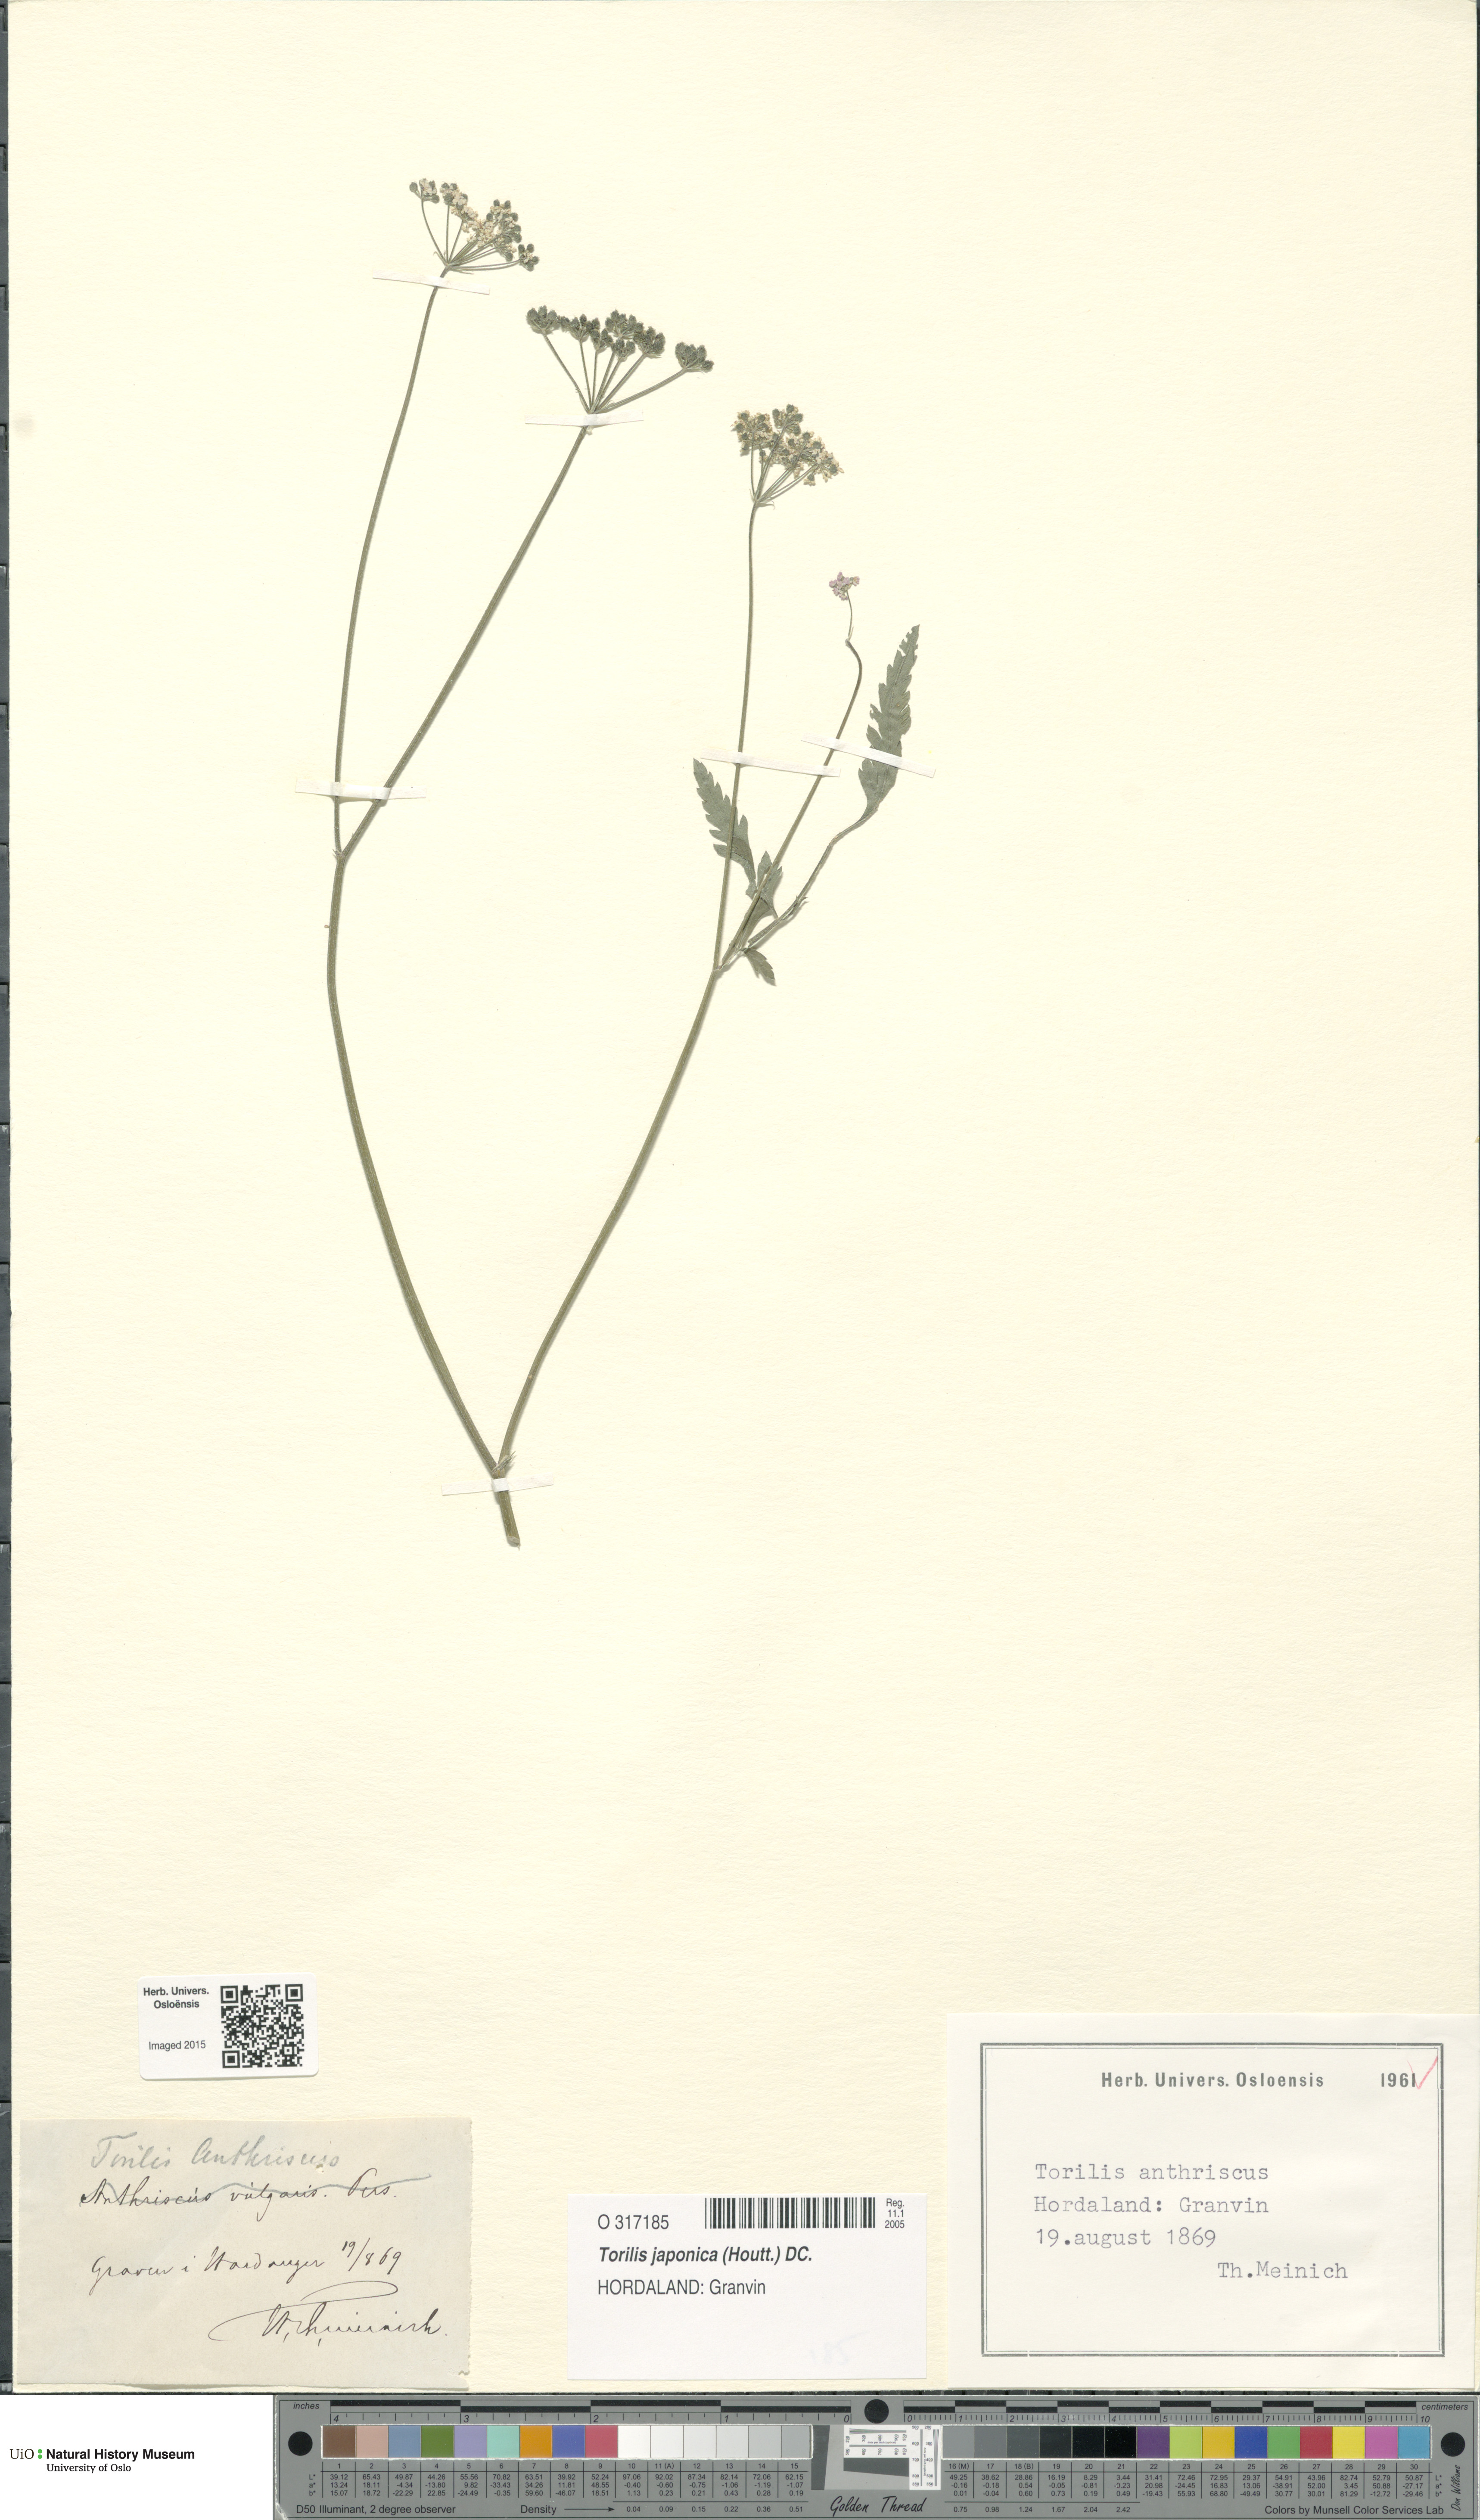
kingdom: Plantae
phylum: Tracheophyta
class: Magnoliopsida
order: Apiales
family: Apiaceae
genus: Torilis
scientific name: Torilis japonica
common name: Upright hedge-parsley
